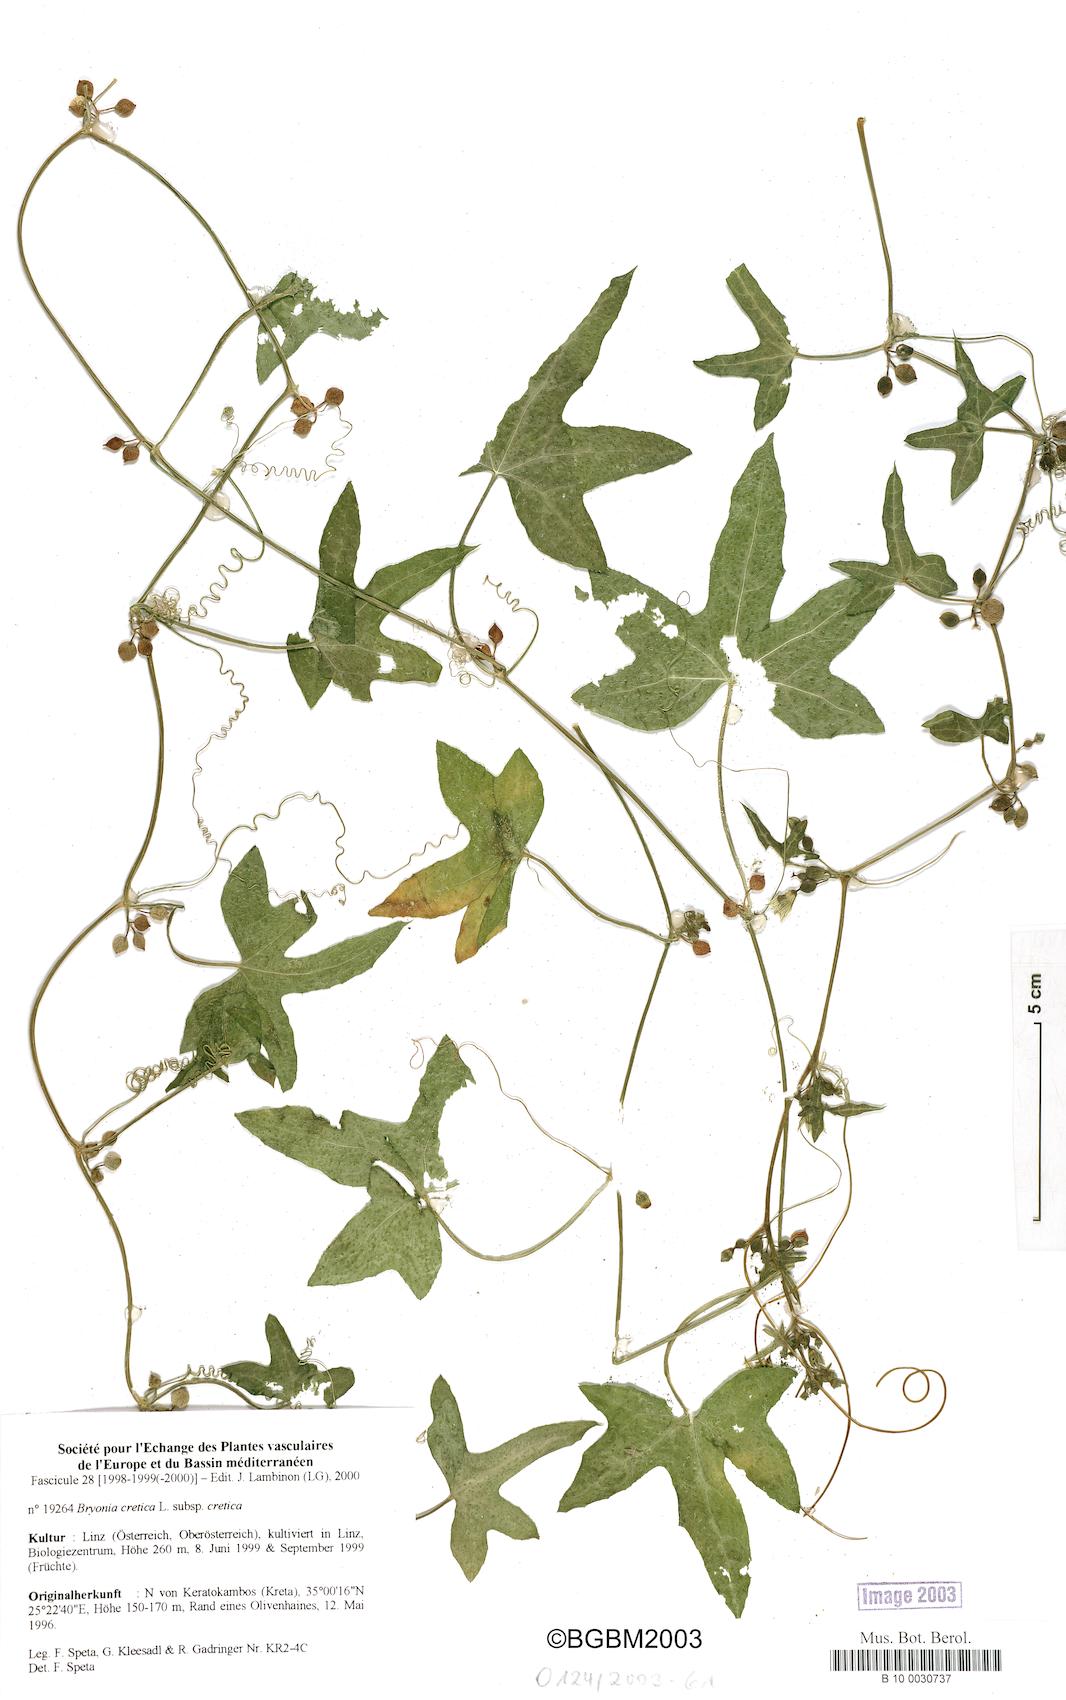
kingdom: Plantae
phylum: Tracheophyta
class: Magnoliopsida
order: Cucurbitales
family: Cucurbitaceae
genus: Bryonia
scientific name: Bryonia cretica
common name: Cretan bryony
